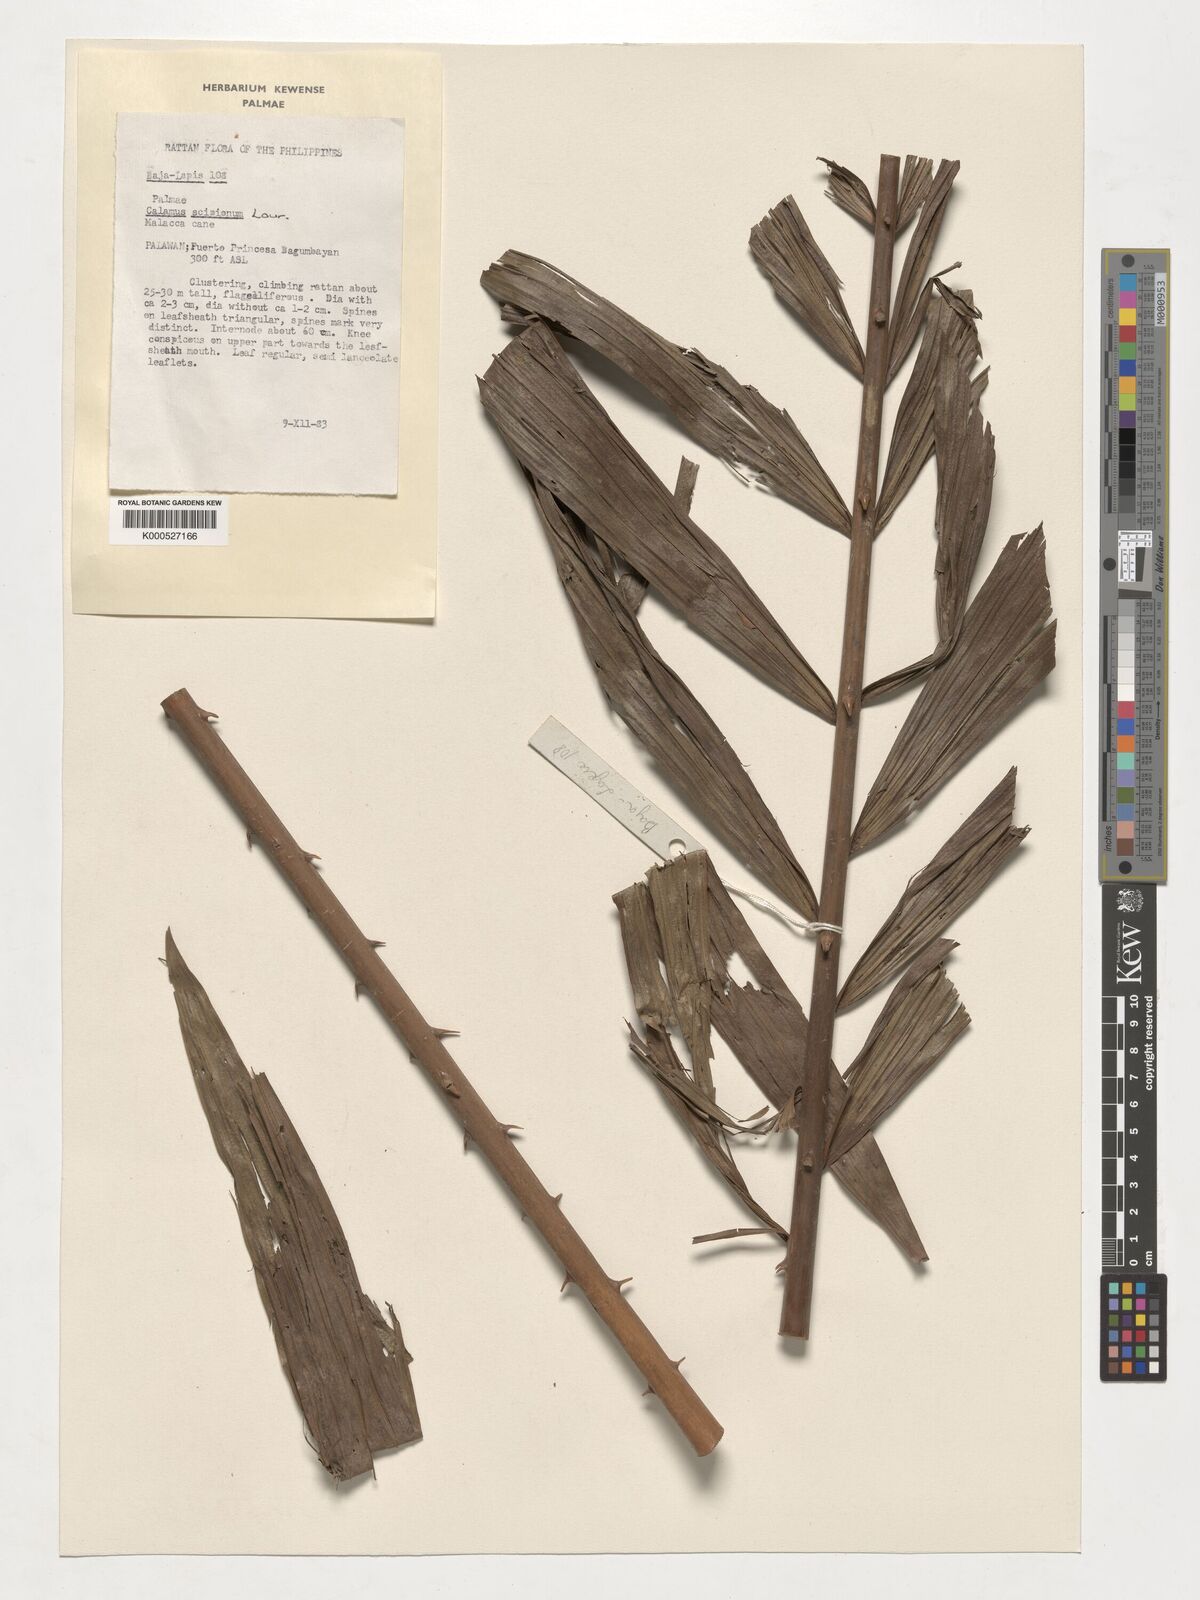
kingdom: Plantae
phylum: Tracheophyta
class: Liliopsida
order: Arecales
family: Arecaceae
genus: Calamus
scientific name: Calamus scipionum
